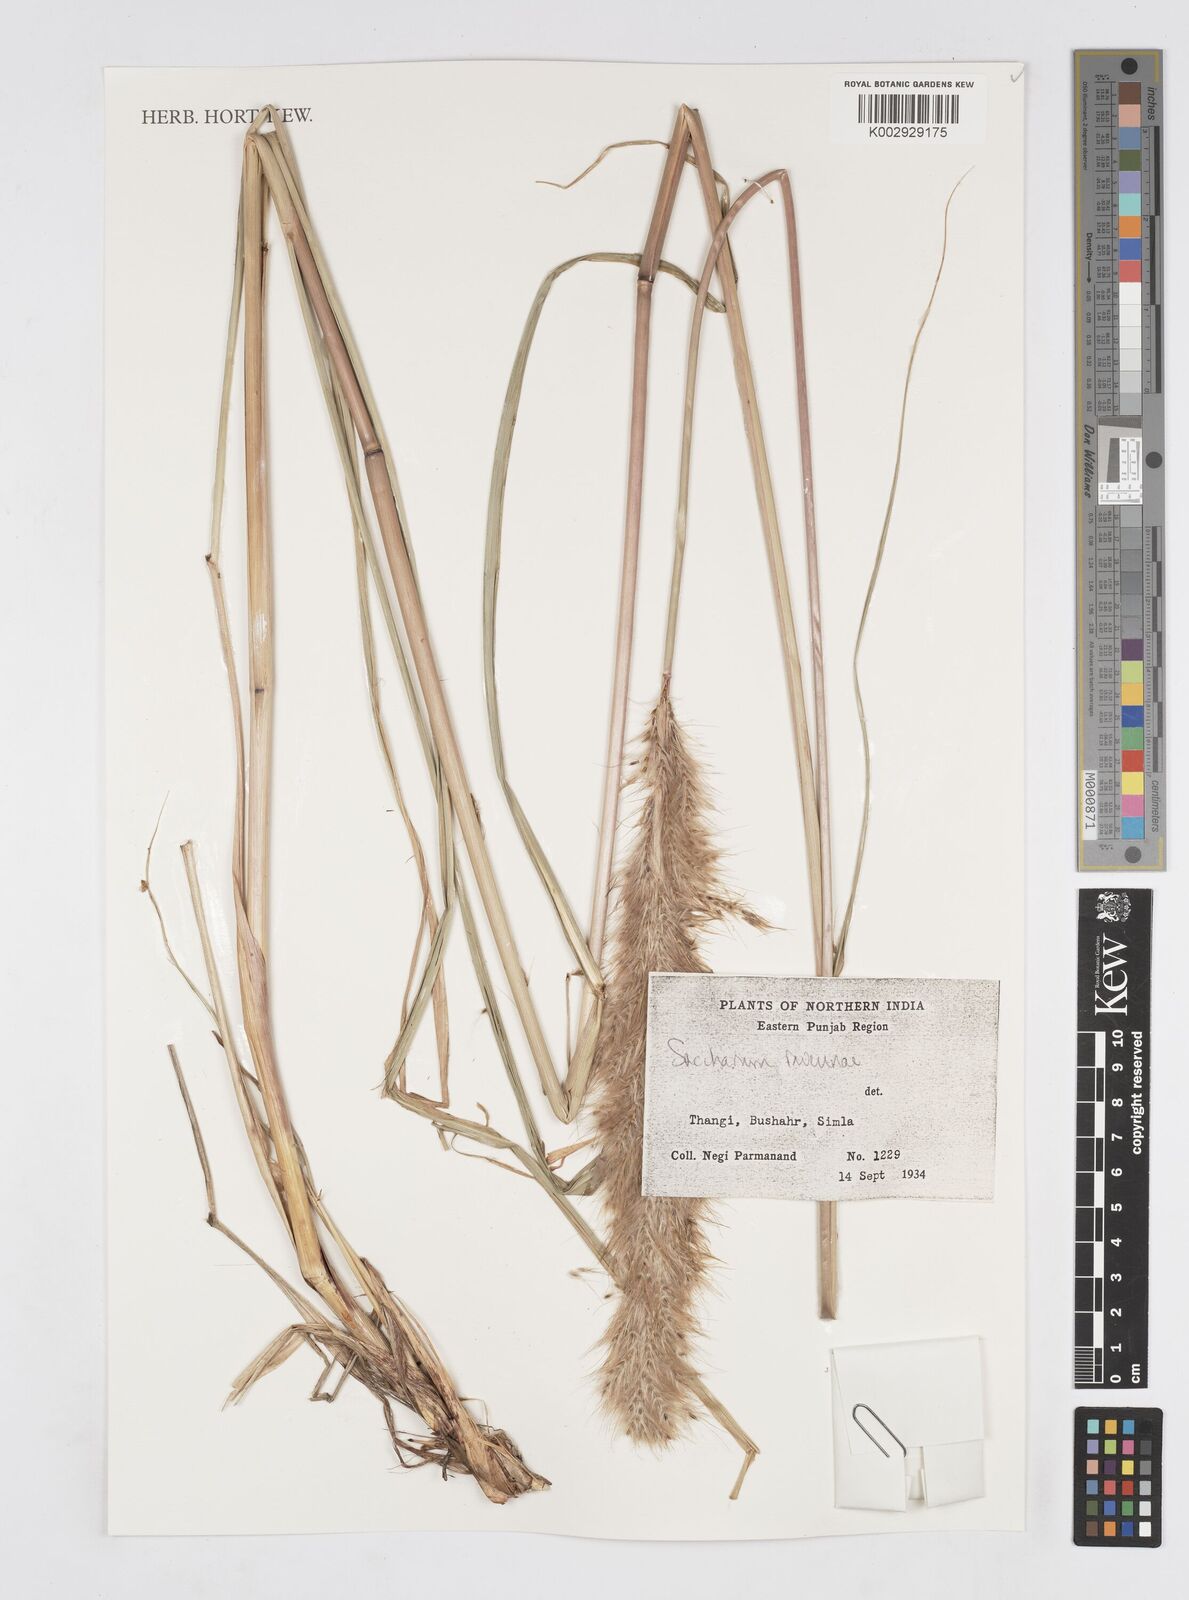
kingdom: Plantae
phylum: Tracheophyta
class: Liliopsida
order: Poales
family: Poaceae
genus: Tripidium
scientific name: Tripidium ravennae
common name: Ravenna grass
